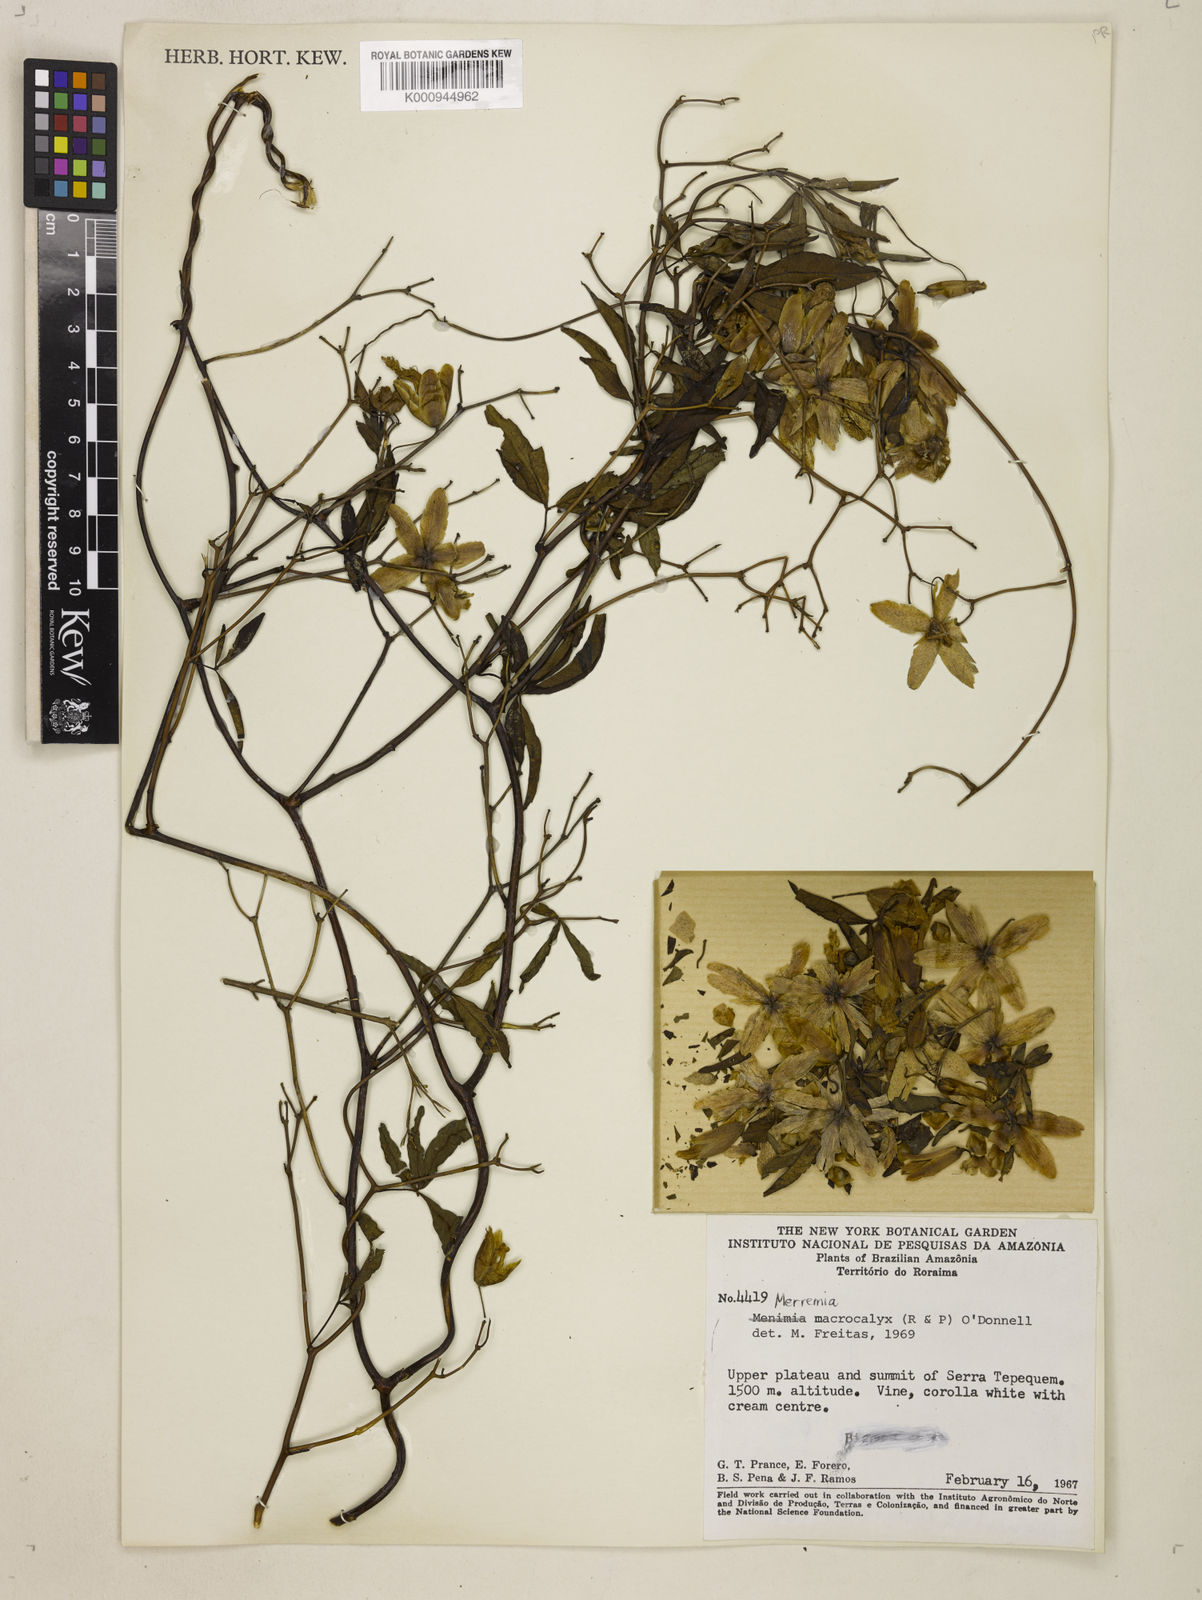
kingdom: Plantae
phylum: Tracheophyta
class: Magnoliopsida
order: Solanales
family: Convolvulaceae
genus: Merremia
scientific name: Merremia
